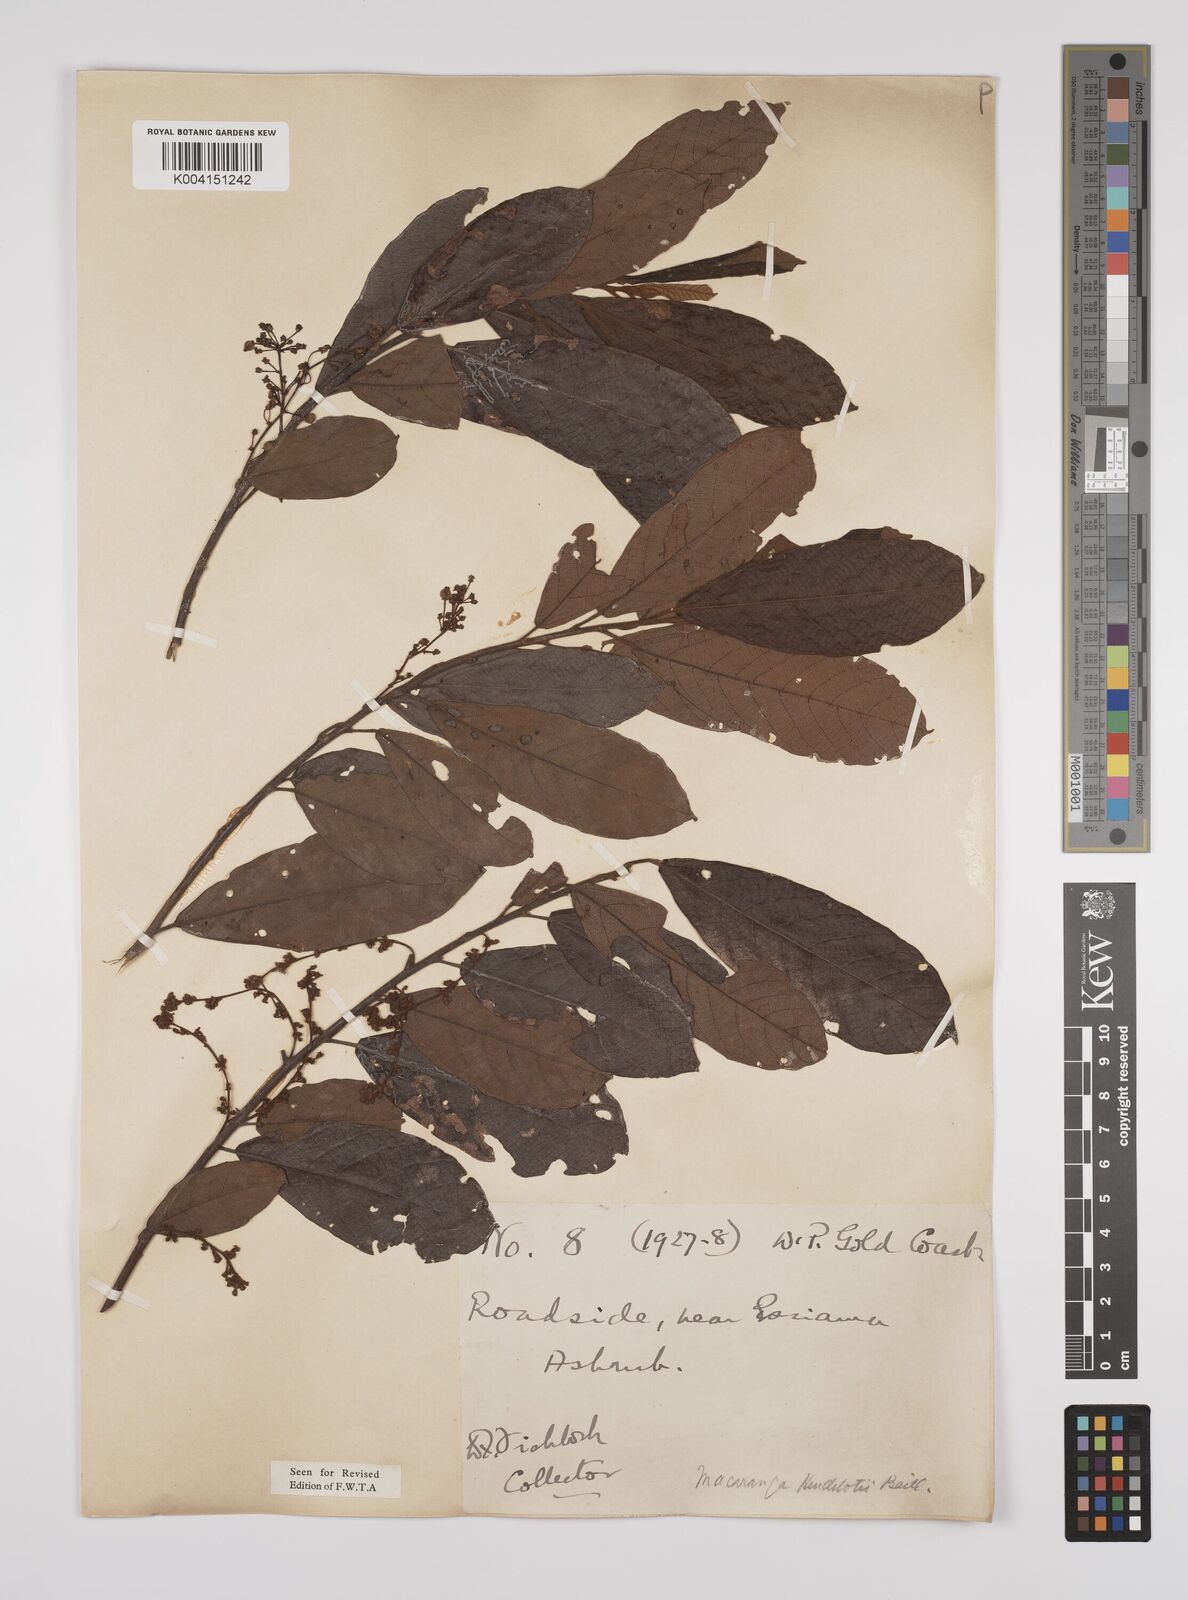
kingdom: Plantae
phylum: Tracheophyta
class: Magnoliopsida
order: Malpighiales
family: Euphorbiaceae
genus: Macaranga
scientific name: Macaranga heudelotii
